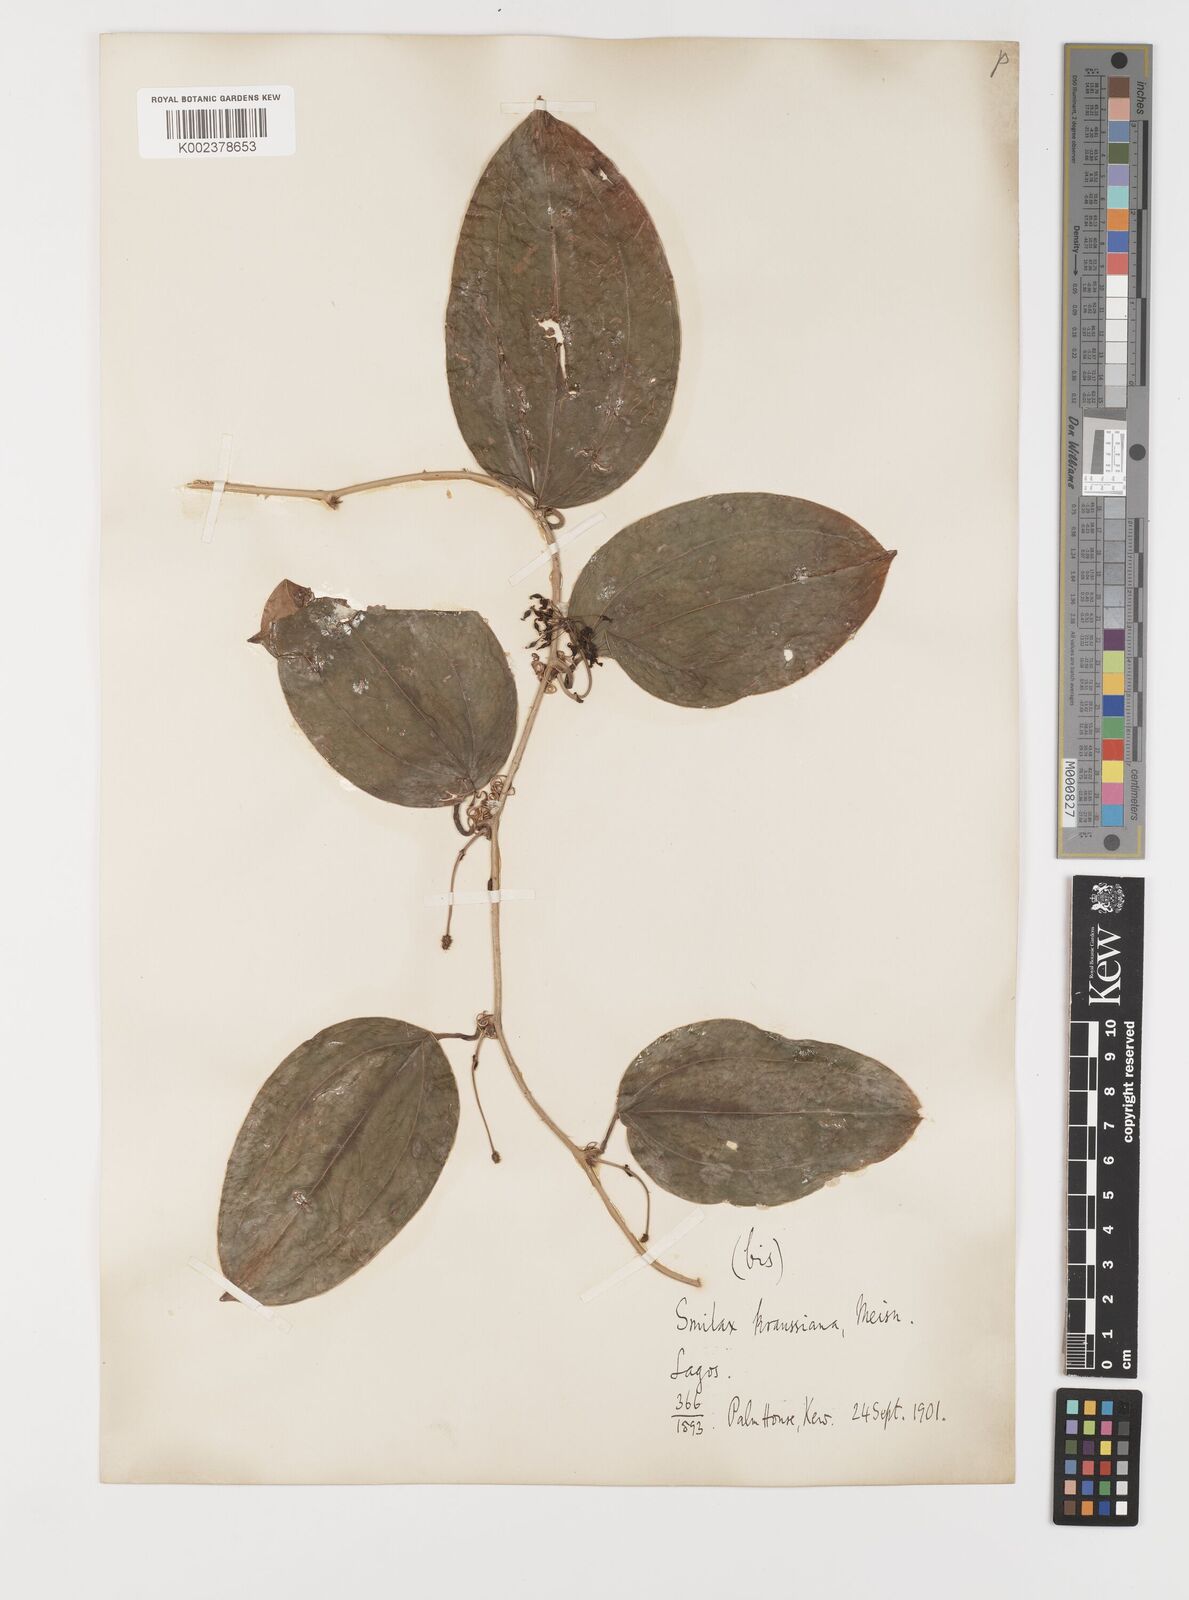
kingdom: Plantae
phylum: Tracheophyta
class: Liliopsida
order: Liliales
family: Smilacaceae
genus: Smilax
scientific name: Smilax anceps
